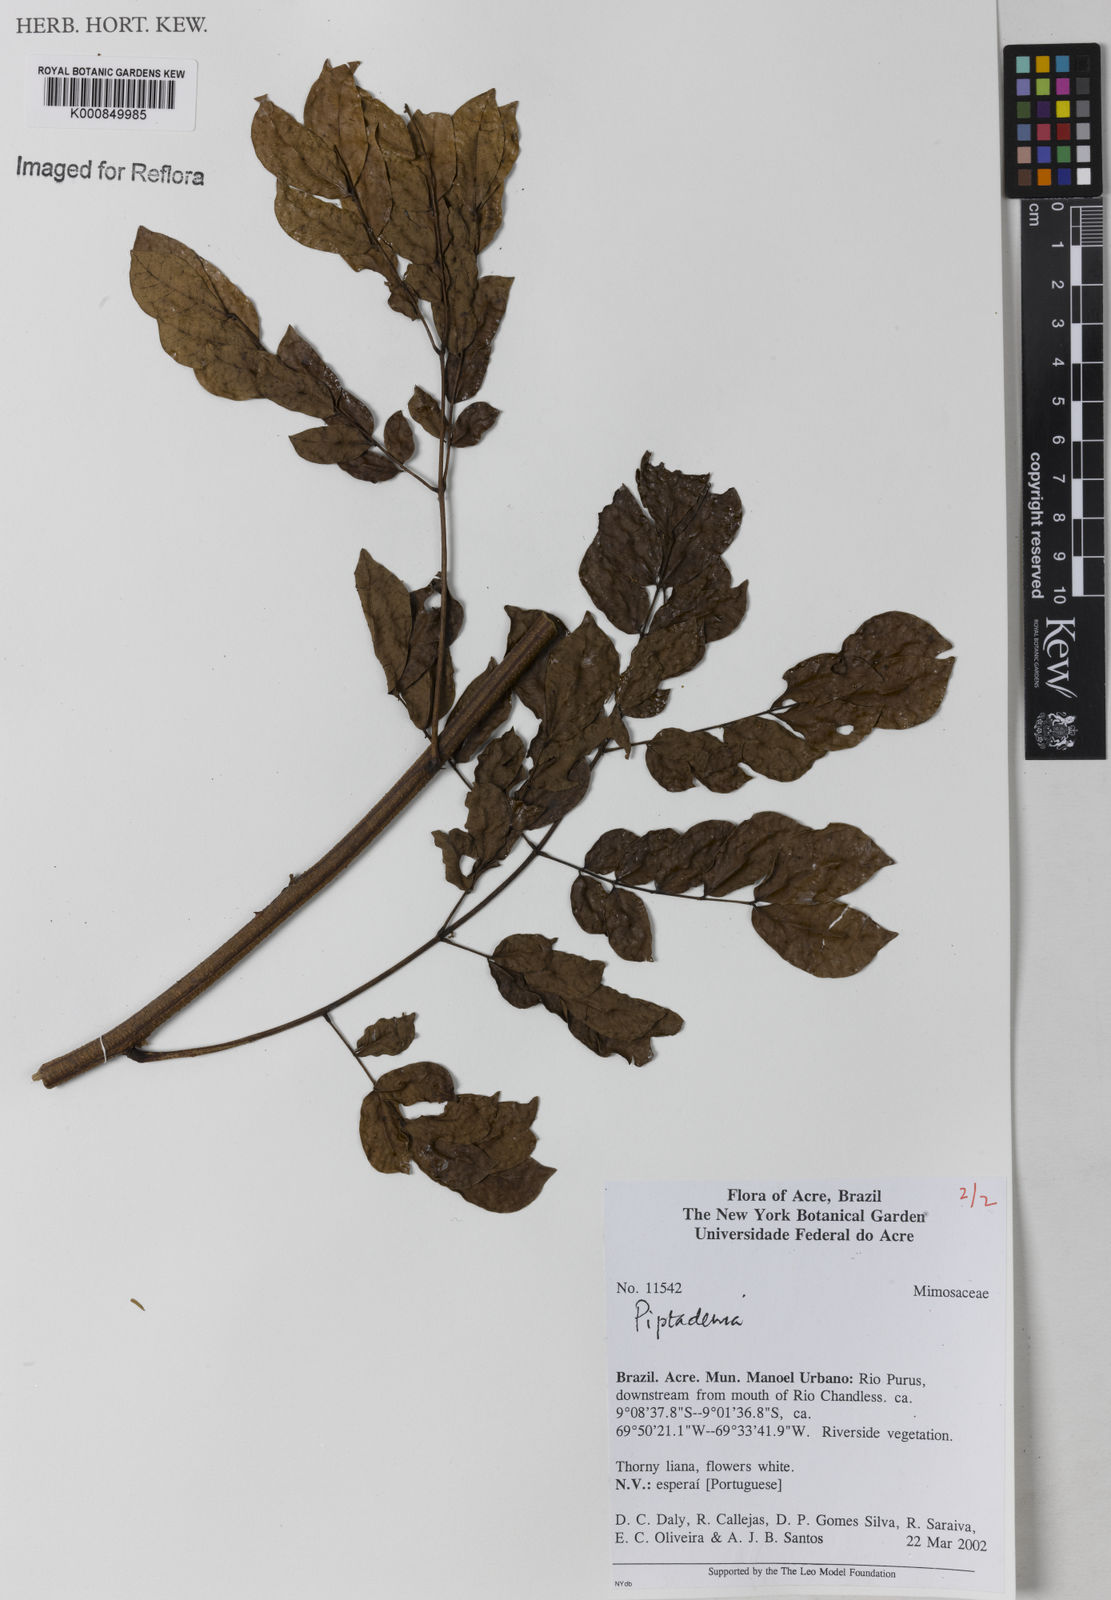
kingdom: Plantae
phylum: Tracheophyta
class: Magnoliopsida
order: Fabales
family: Fabaceae
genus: Piptadenia
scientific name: Piptadenia
